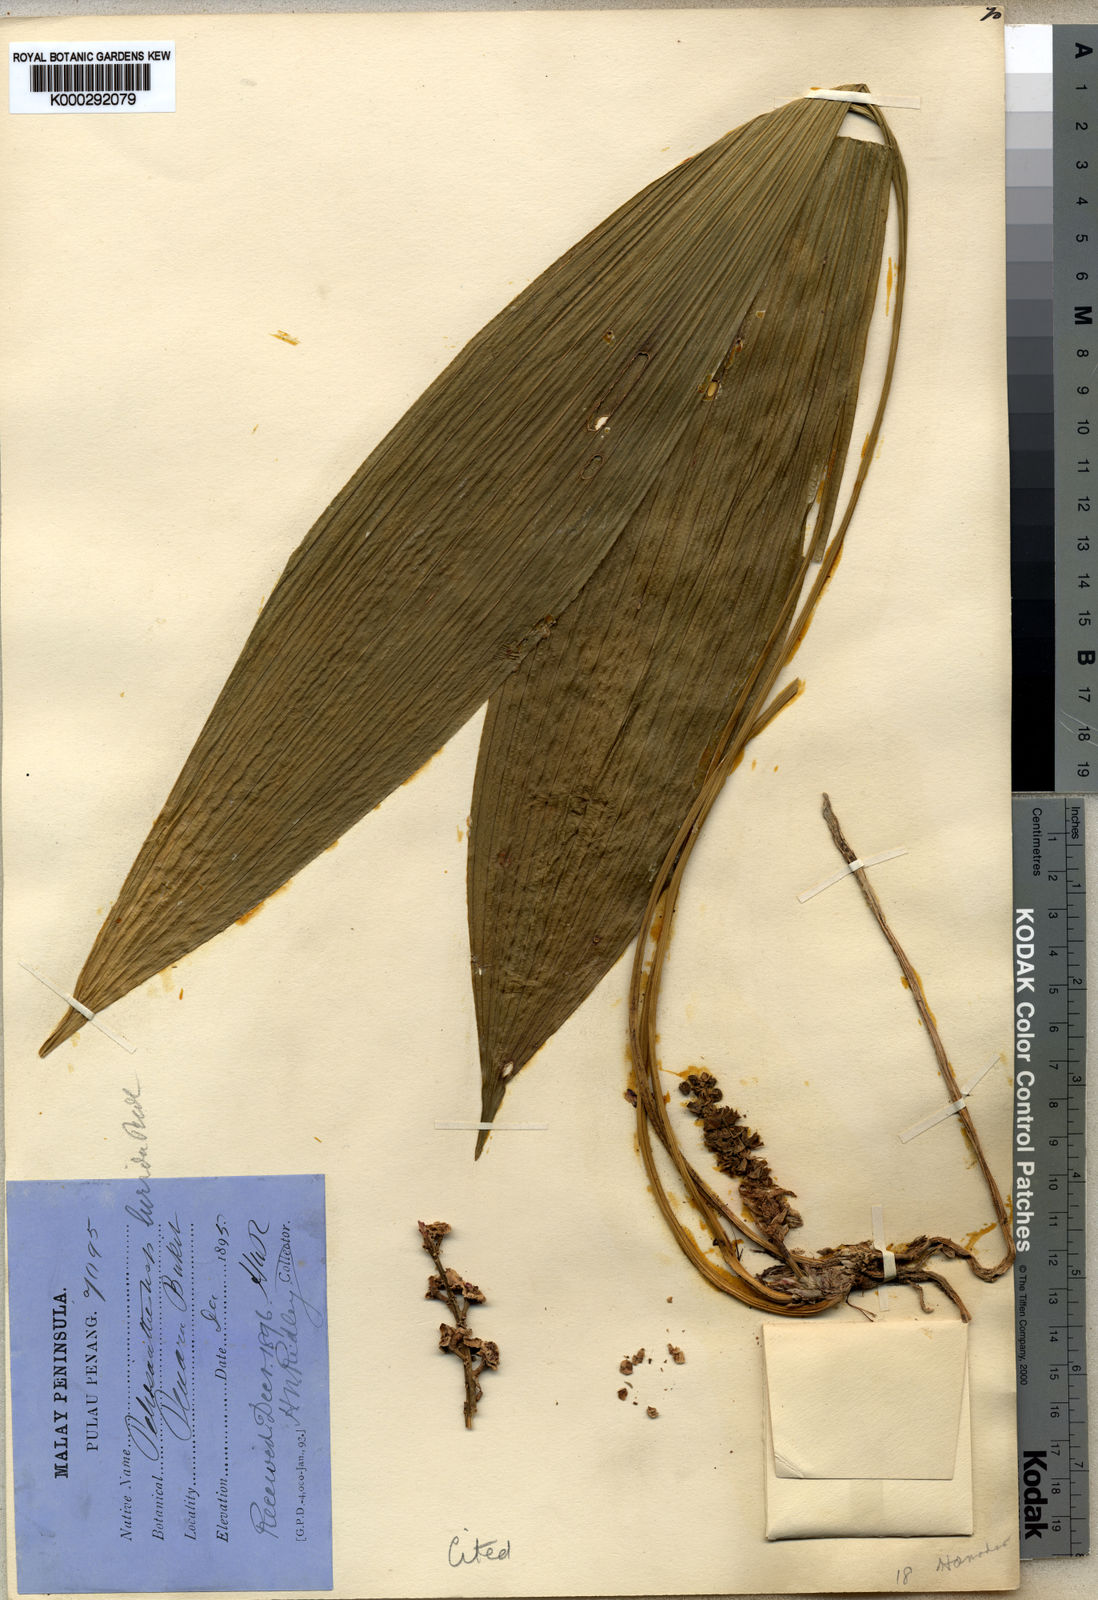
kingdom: Plantae
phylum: Tracheophyta
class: Liliopsida
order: Asparagales
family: Asparagaceae
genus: Peliosanthes
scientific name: Peliosanthes teta
